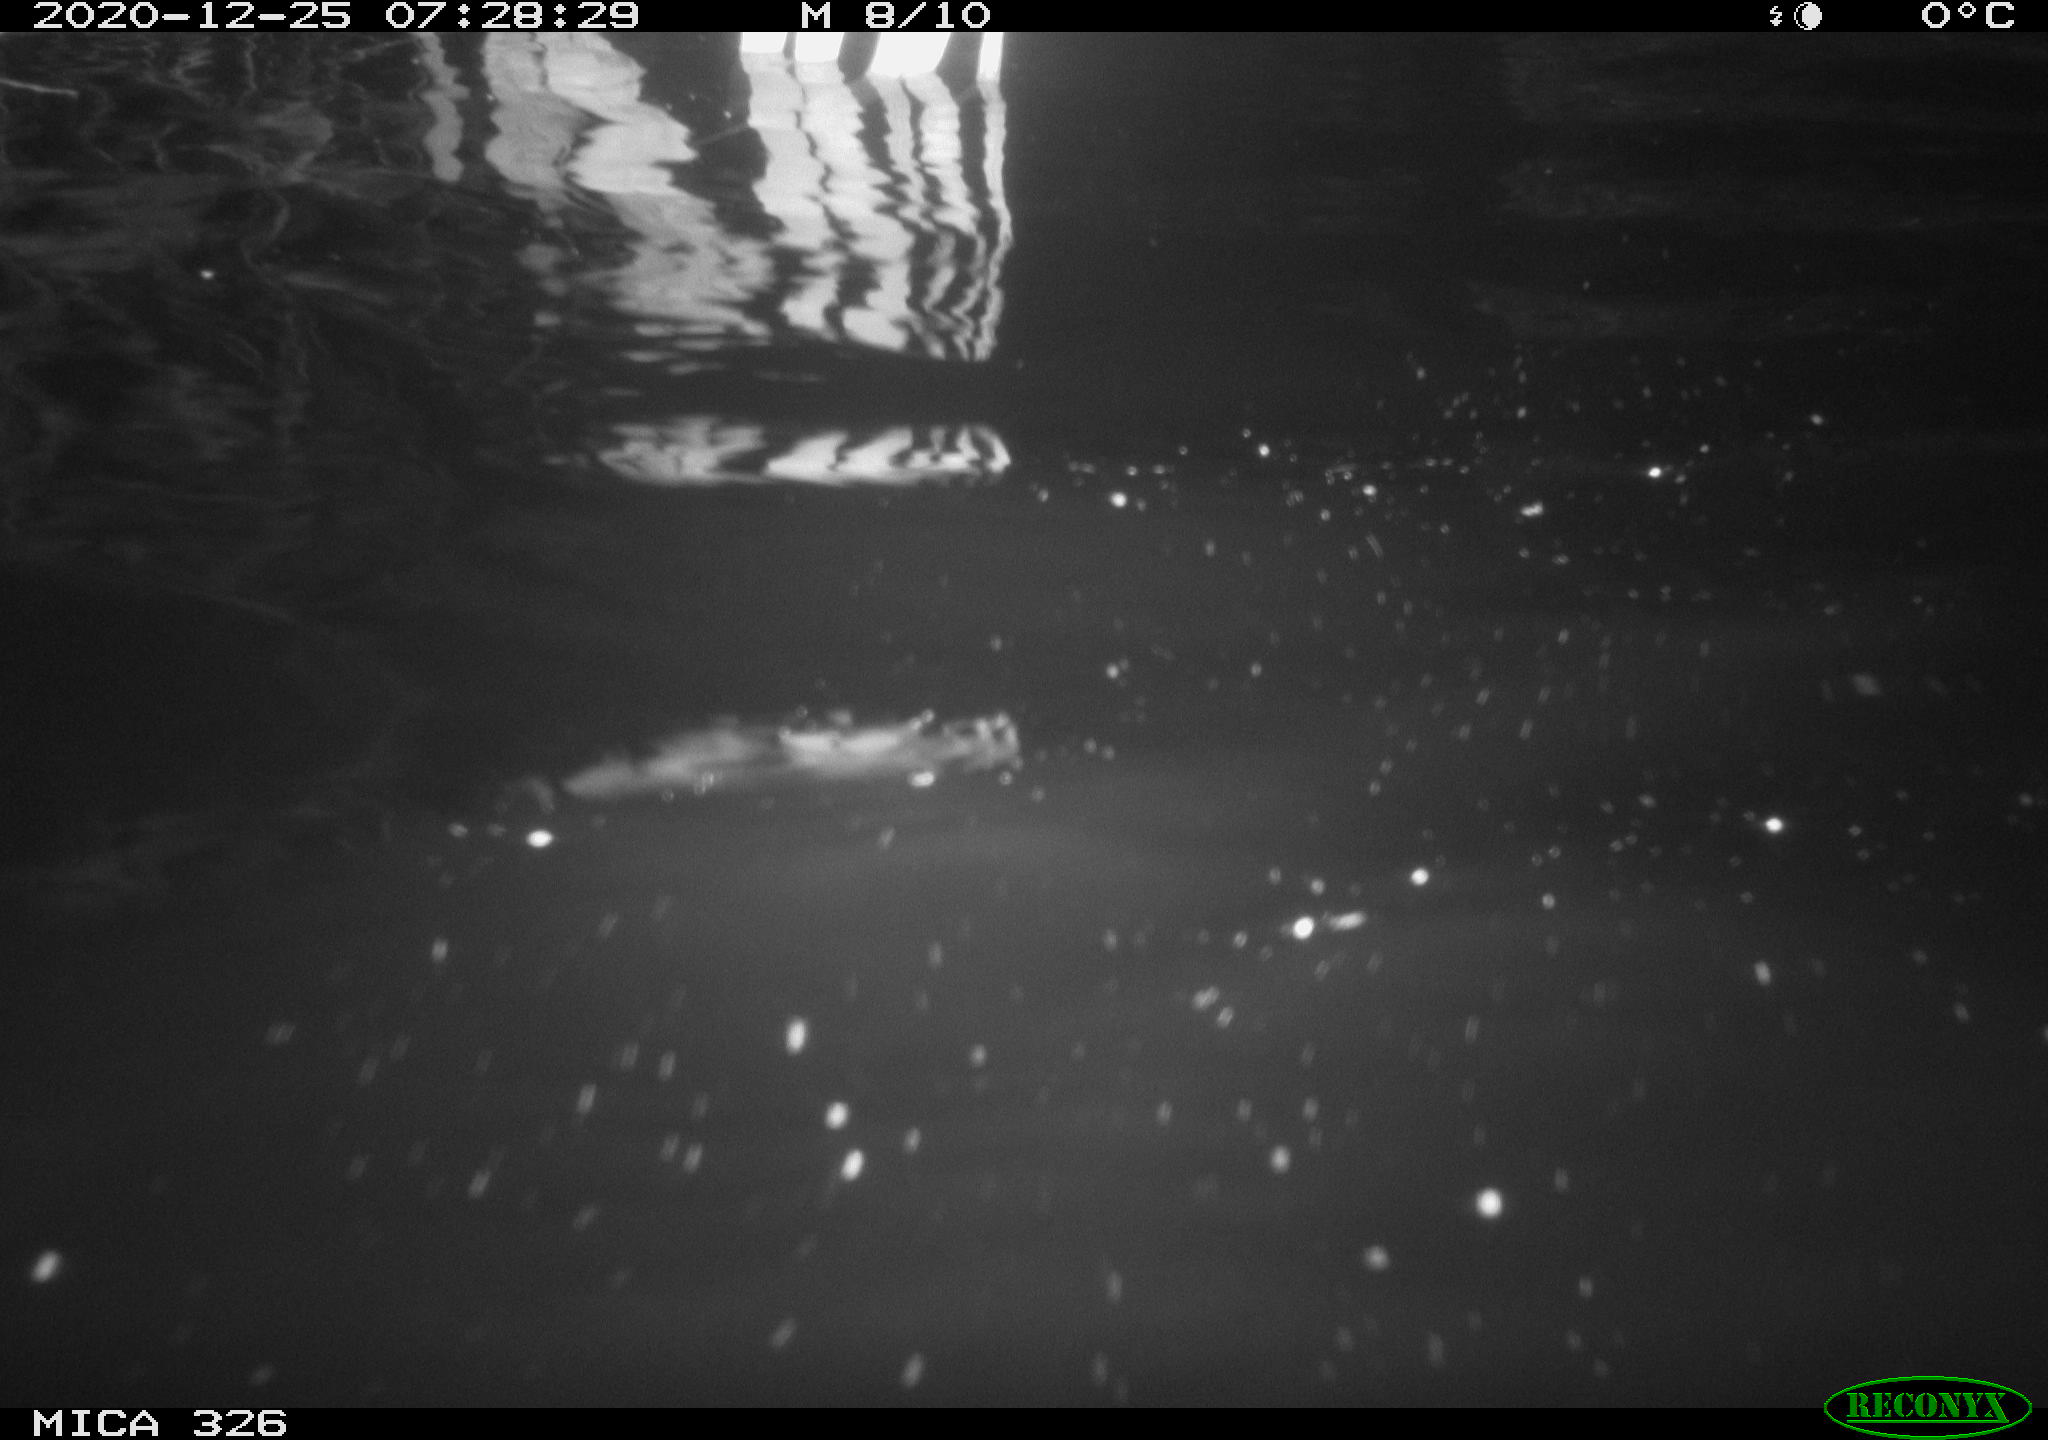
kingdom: Animalia
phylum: Chordata
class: Mammalia
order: Rodentia
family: Cricetidae
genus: Ondatra
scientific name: Ondatra zibethicus
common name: Muskrat
